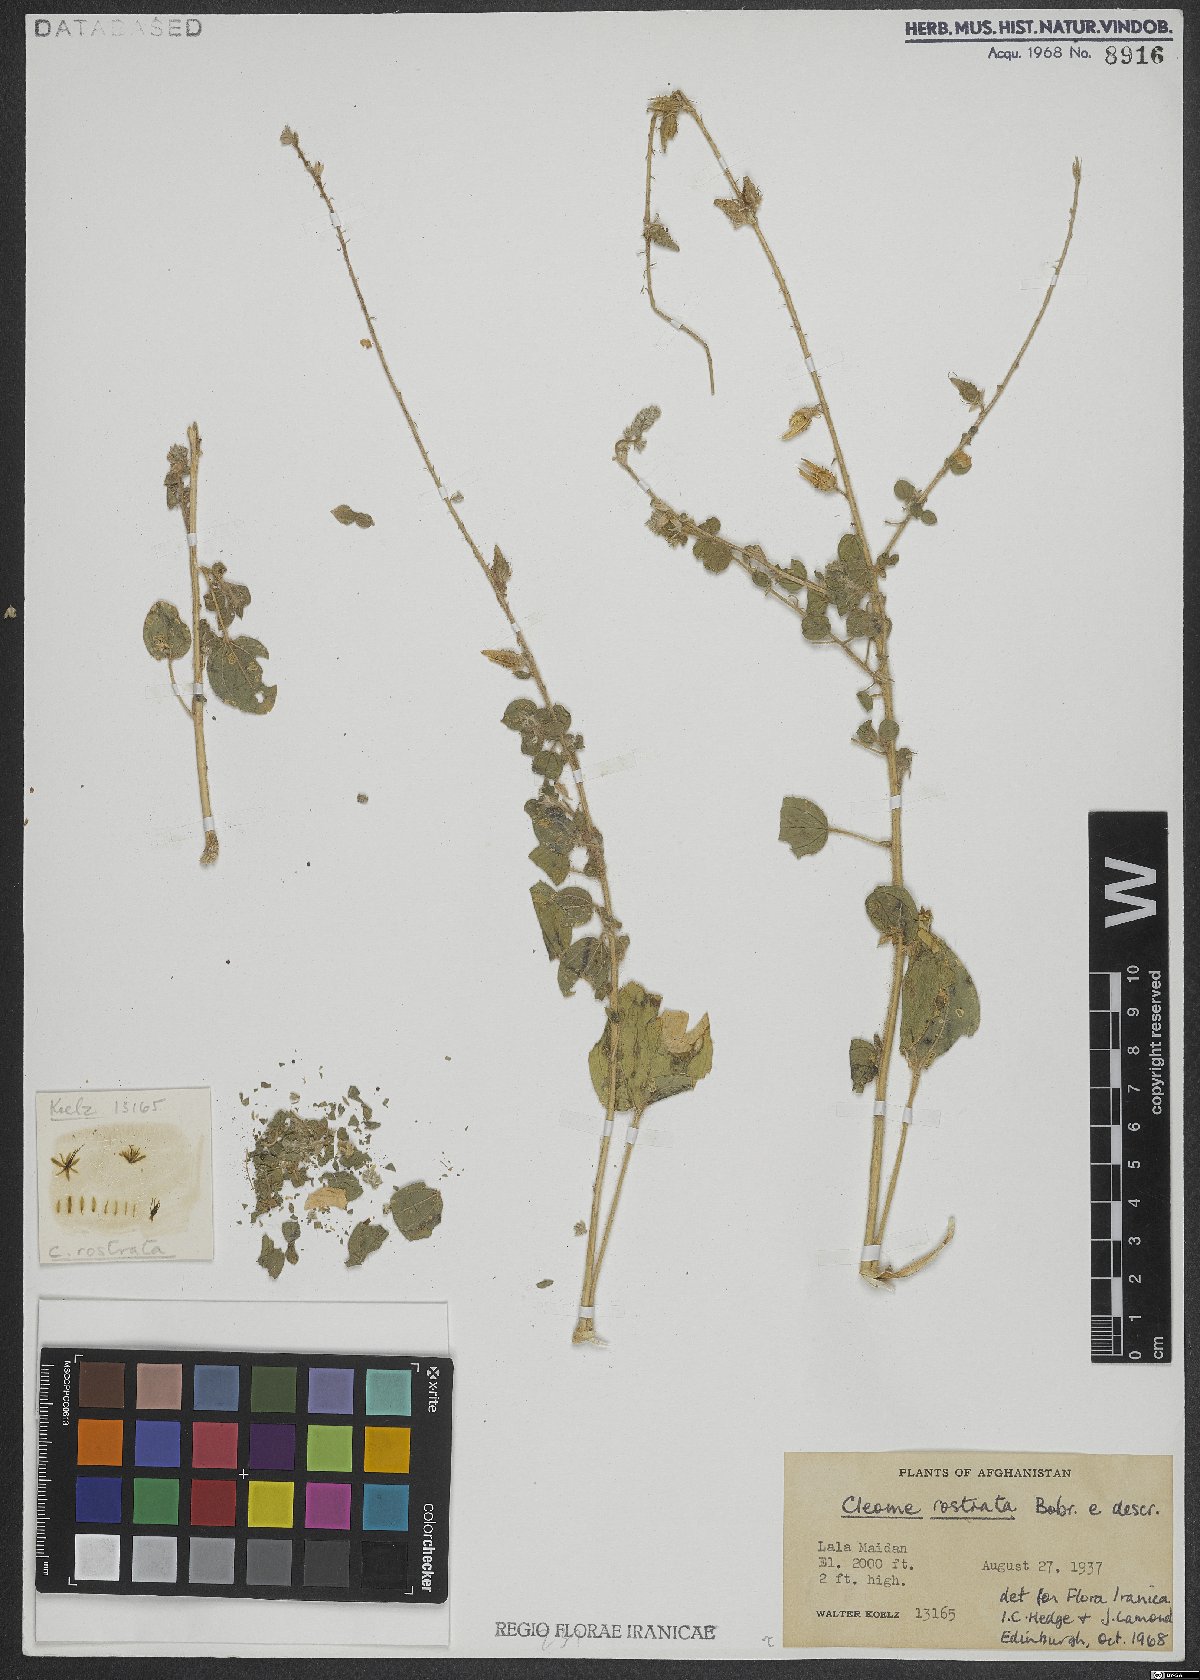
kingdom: Plantae
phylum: Tracheophyta
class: Magnoliopsida
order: Brassicales
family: Cleomaceae
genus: Rorida
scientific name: Rorida rostrata
